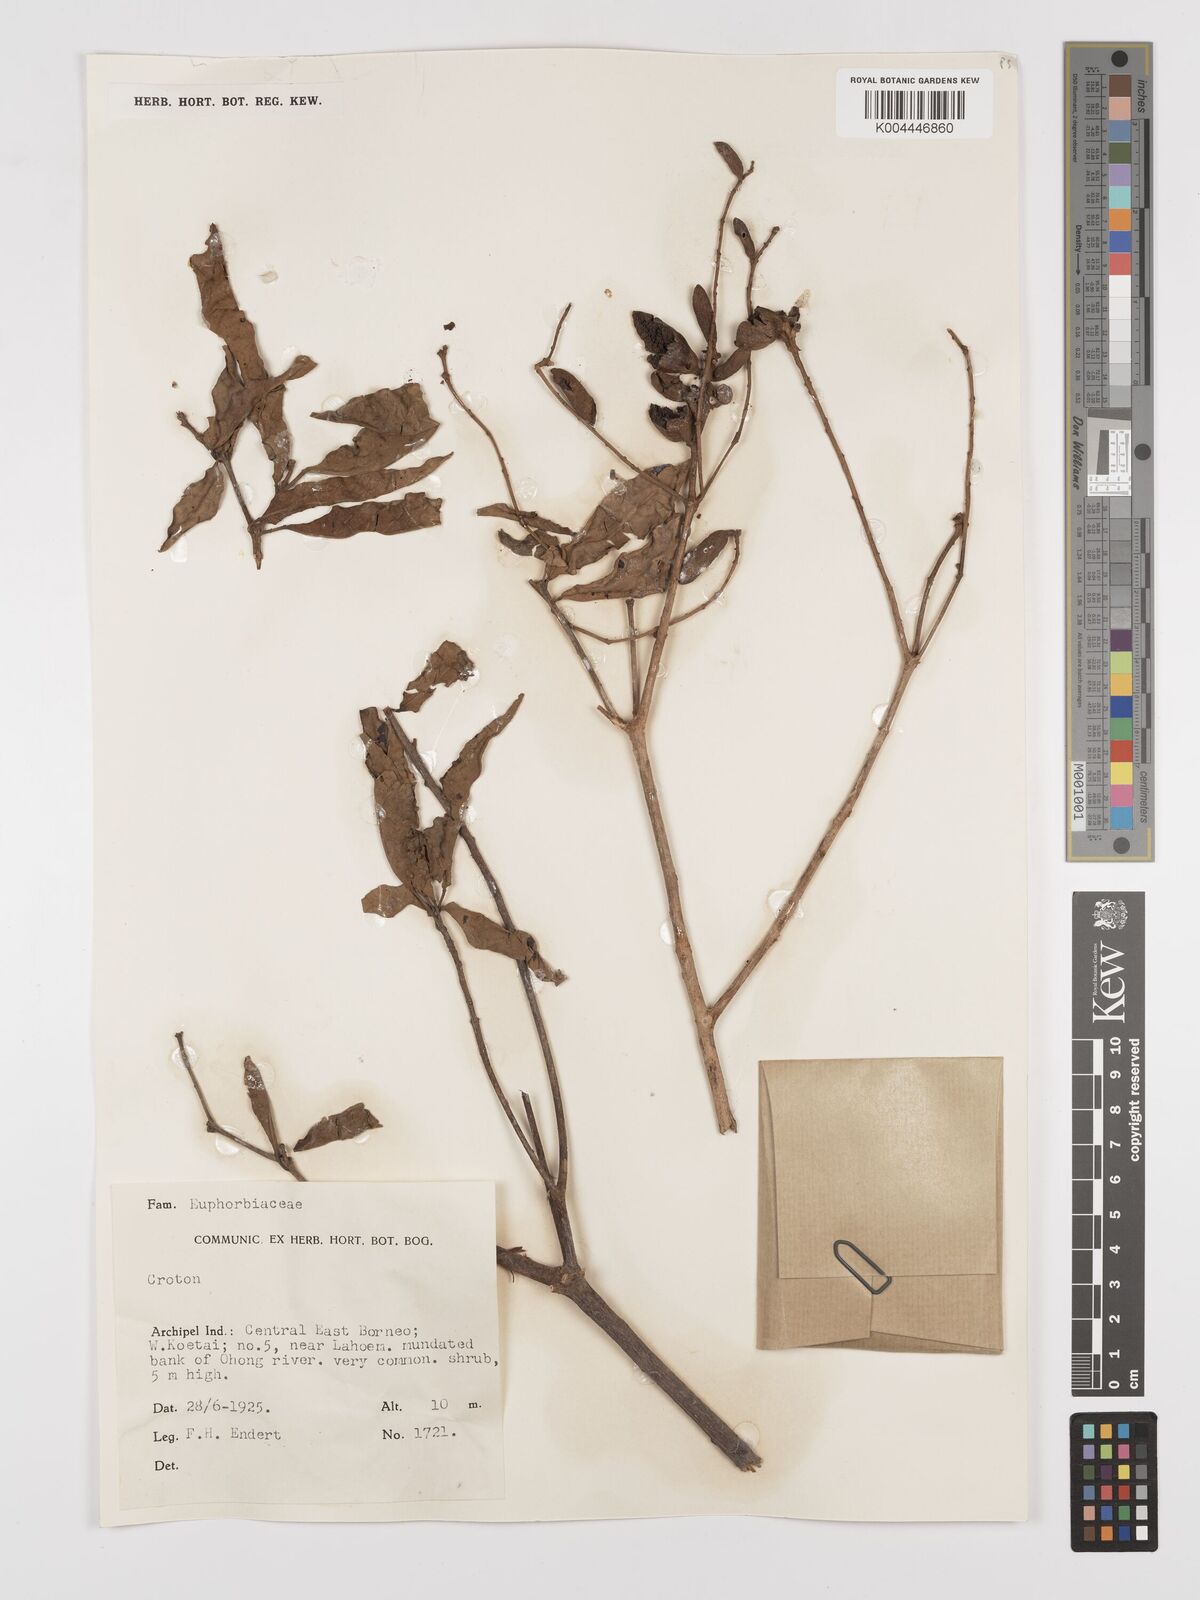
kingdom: Plantae
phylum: Tracheophyta
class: Magnoliopsida
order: Malpighiales
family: Euphorbiaceae
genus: Croton
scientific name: Croton oblongus
